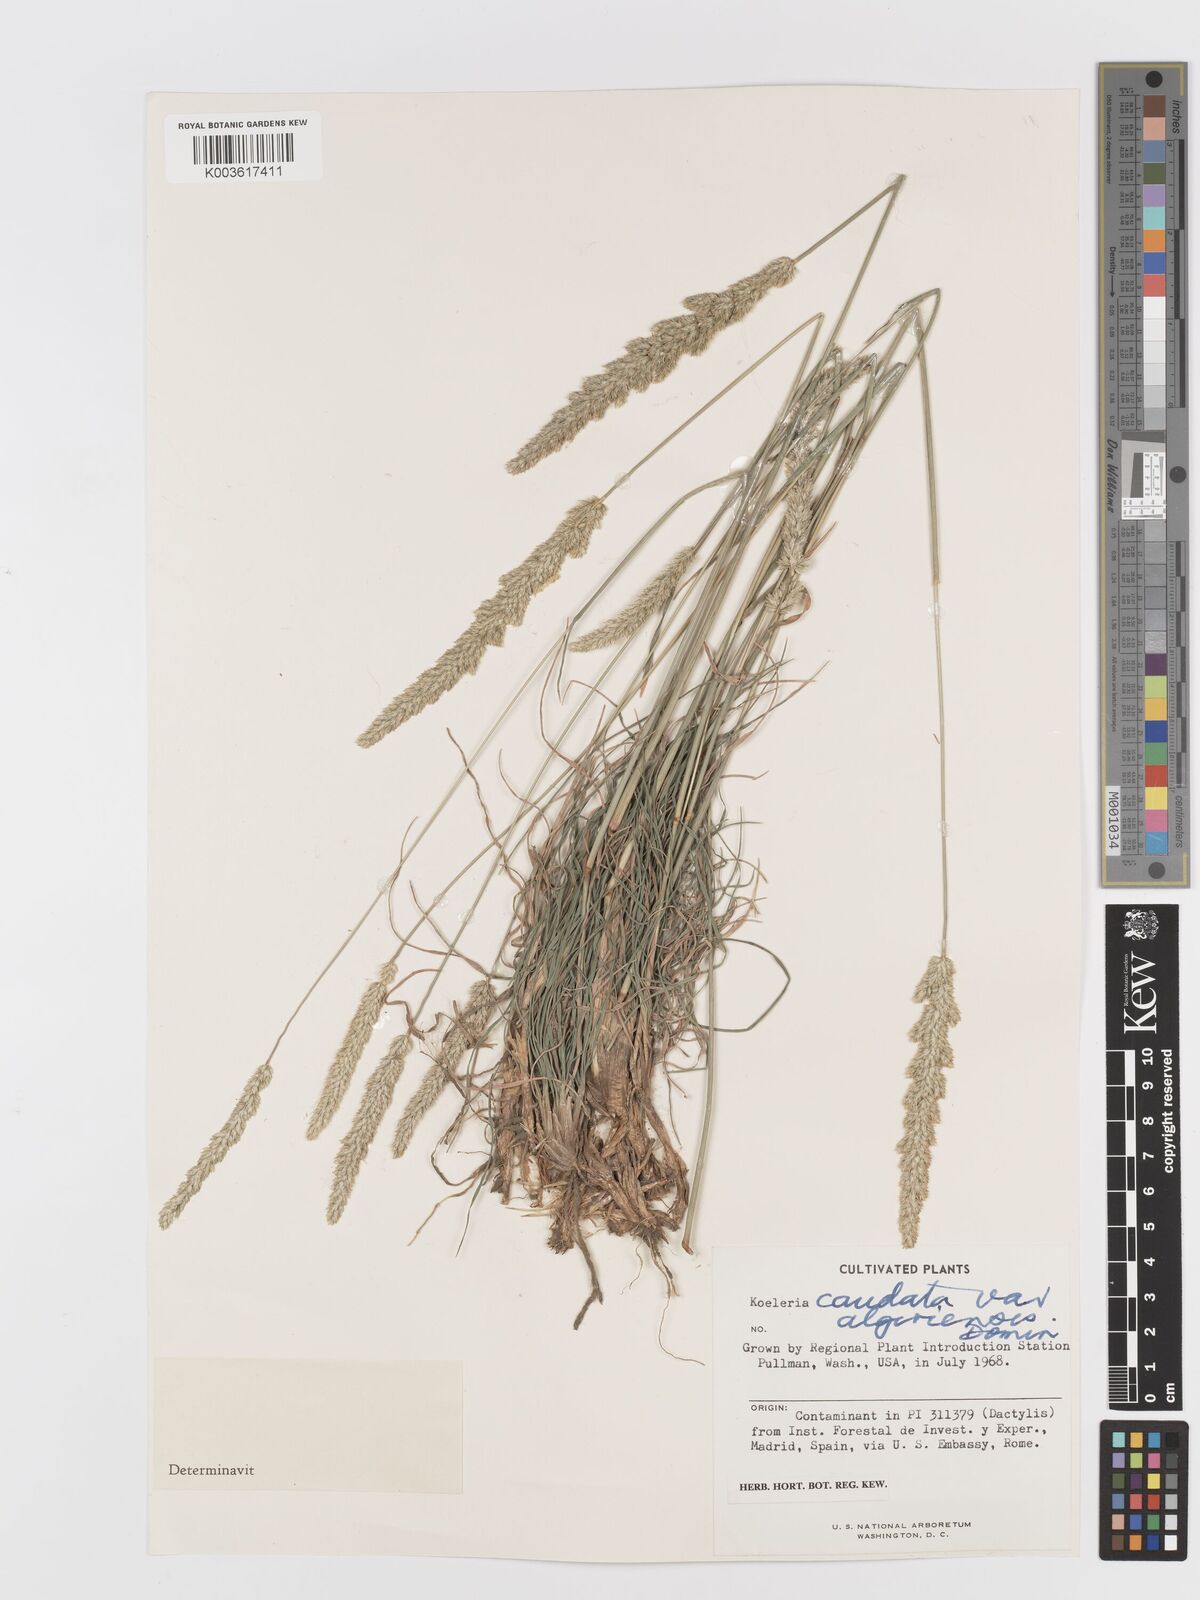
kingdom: Plantae
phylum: Tracheophyta
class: Liliopsida
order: Poales
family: Poaceae
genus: Koeleria
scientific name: Koeleria crassipes
